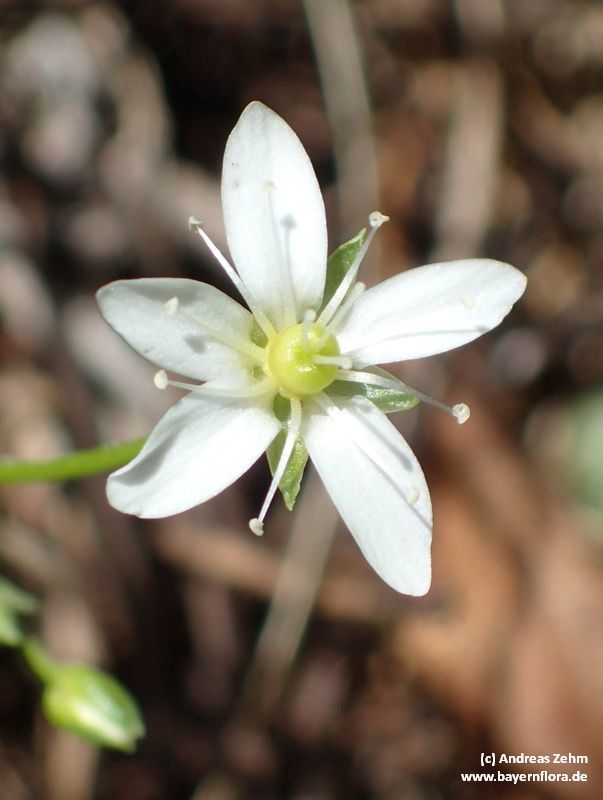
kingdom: Plantae
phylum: Tracheophyta
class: Magnoliopsida
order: Caryophyllales
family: Caryophyllaceae
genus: Moehringia
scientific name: Moehringia muscosa
